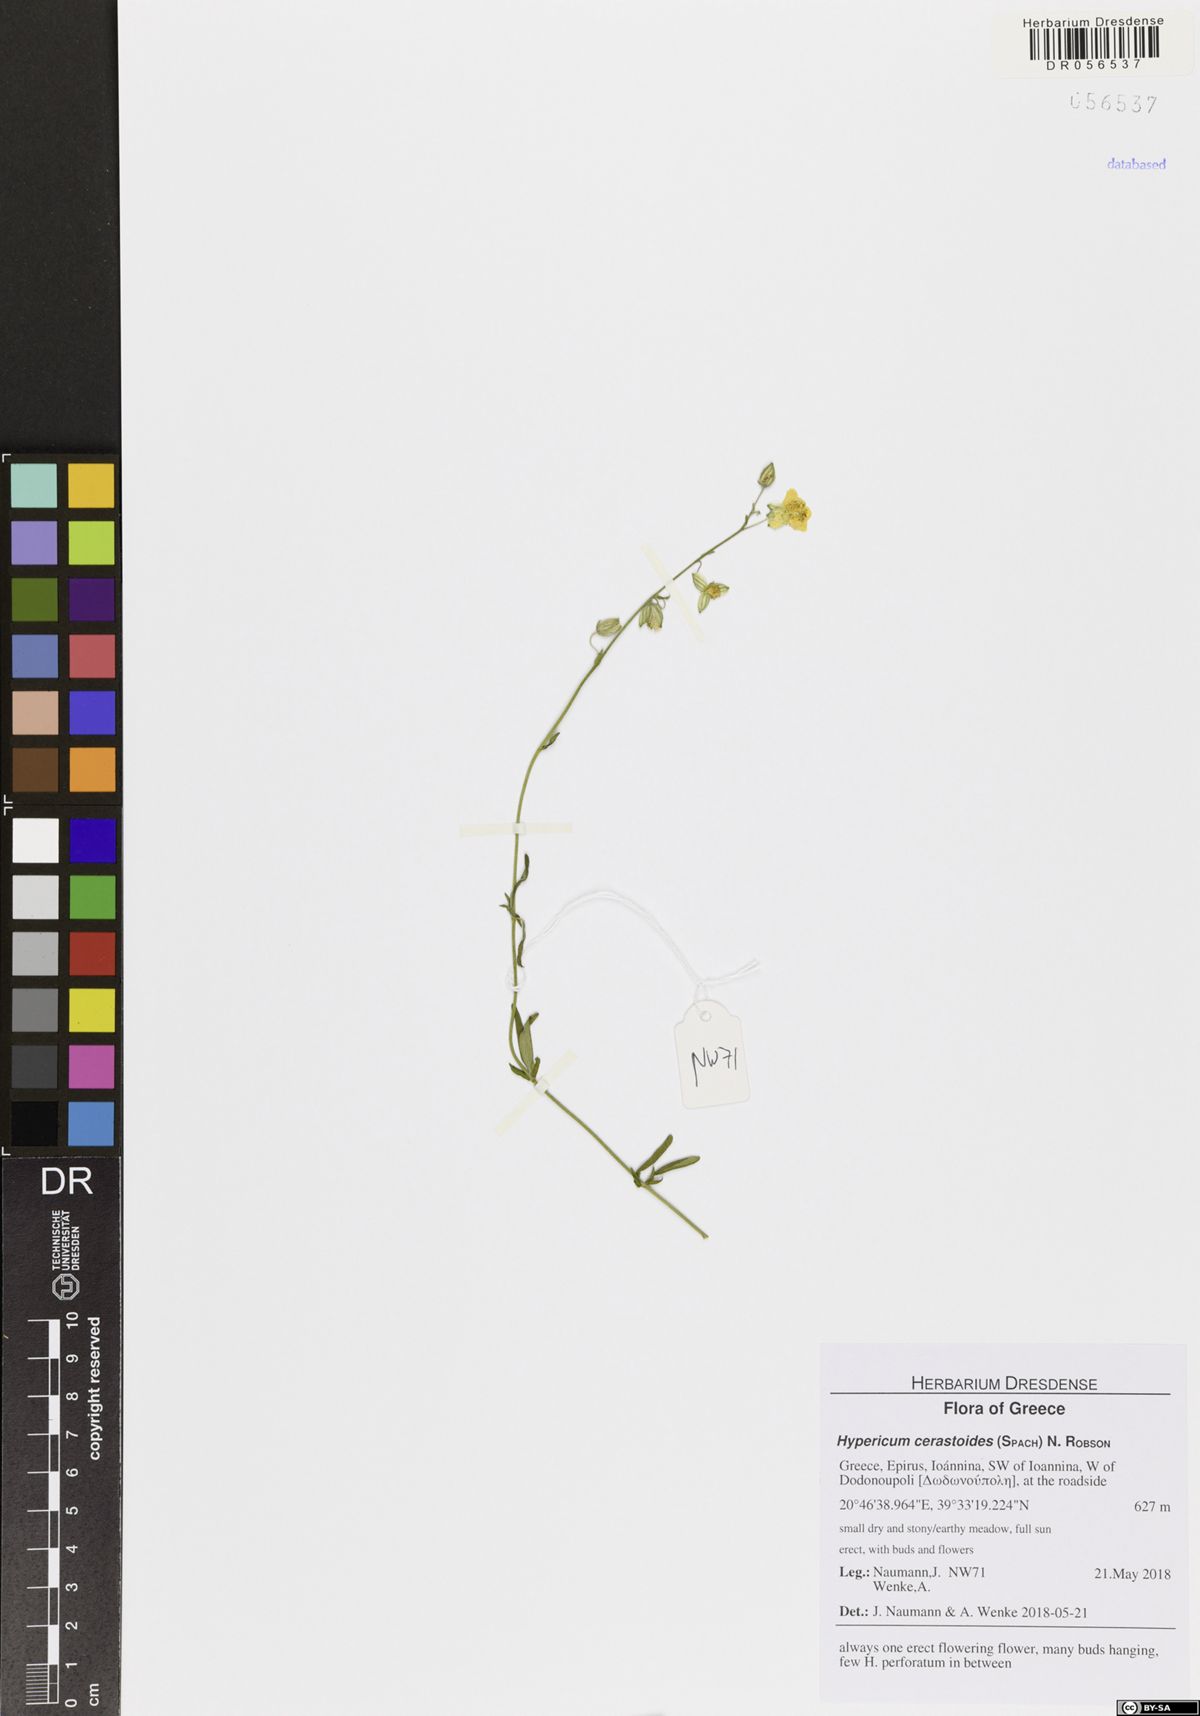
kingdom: Plantae
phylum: Tracheophyta
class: Magnoliopsida
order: Malpighiales
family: Hypericaceae
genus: Hypericum
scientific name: Hypericum cerastoides
